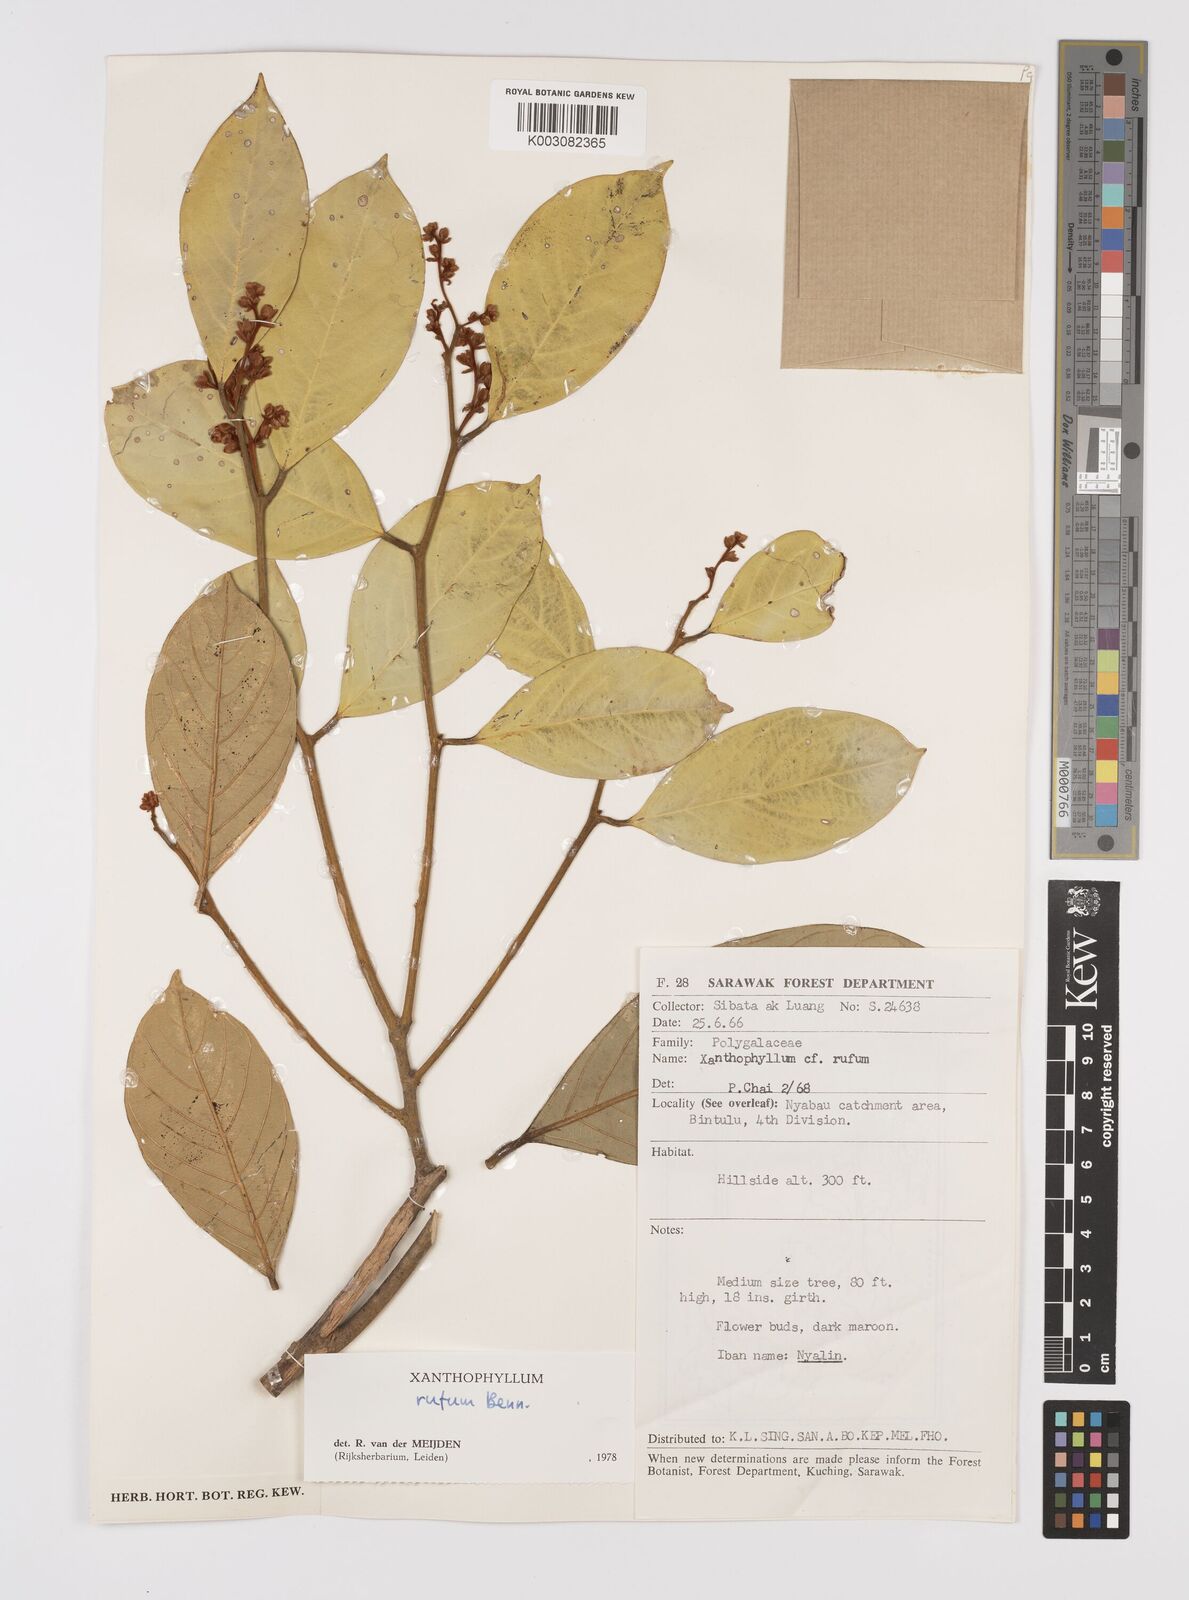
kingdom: Plantae
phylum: Tracheophyta
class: Magnoliopsida
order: Fabales
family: Polygalaceae
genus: Xanthophyllum
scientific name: Xanthophyllum rufum
